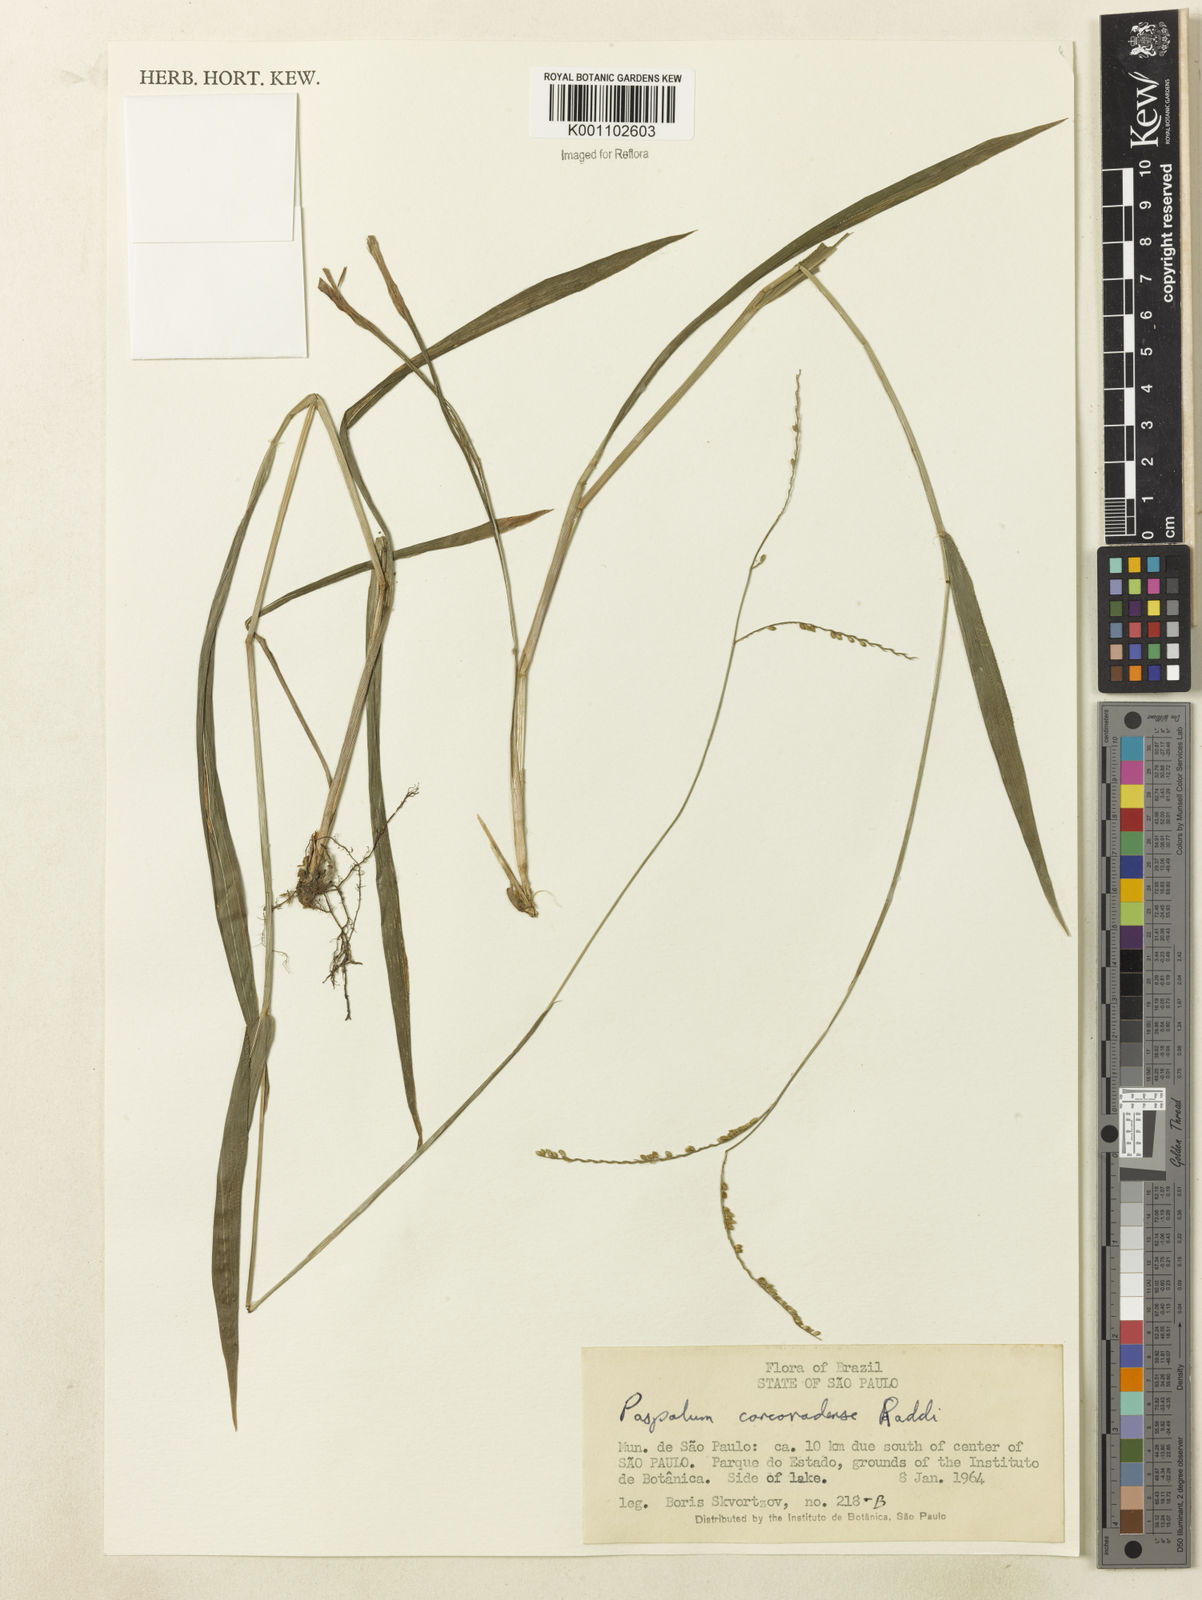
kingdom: Plantae
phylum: Tracheophyta
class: Liliopsida
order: Poales
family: Poaceae
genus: Paspalum
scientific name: Paspalum molle
